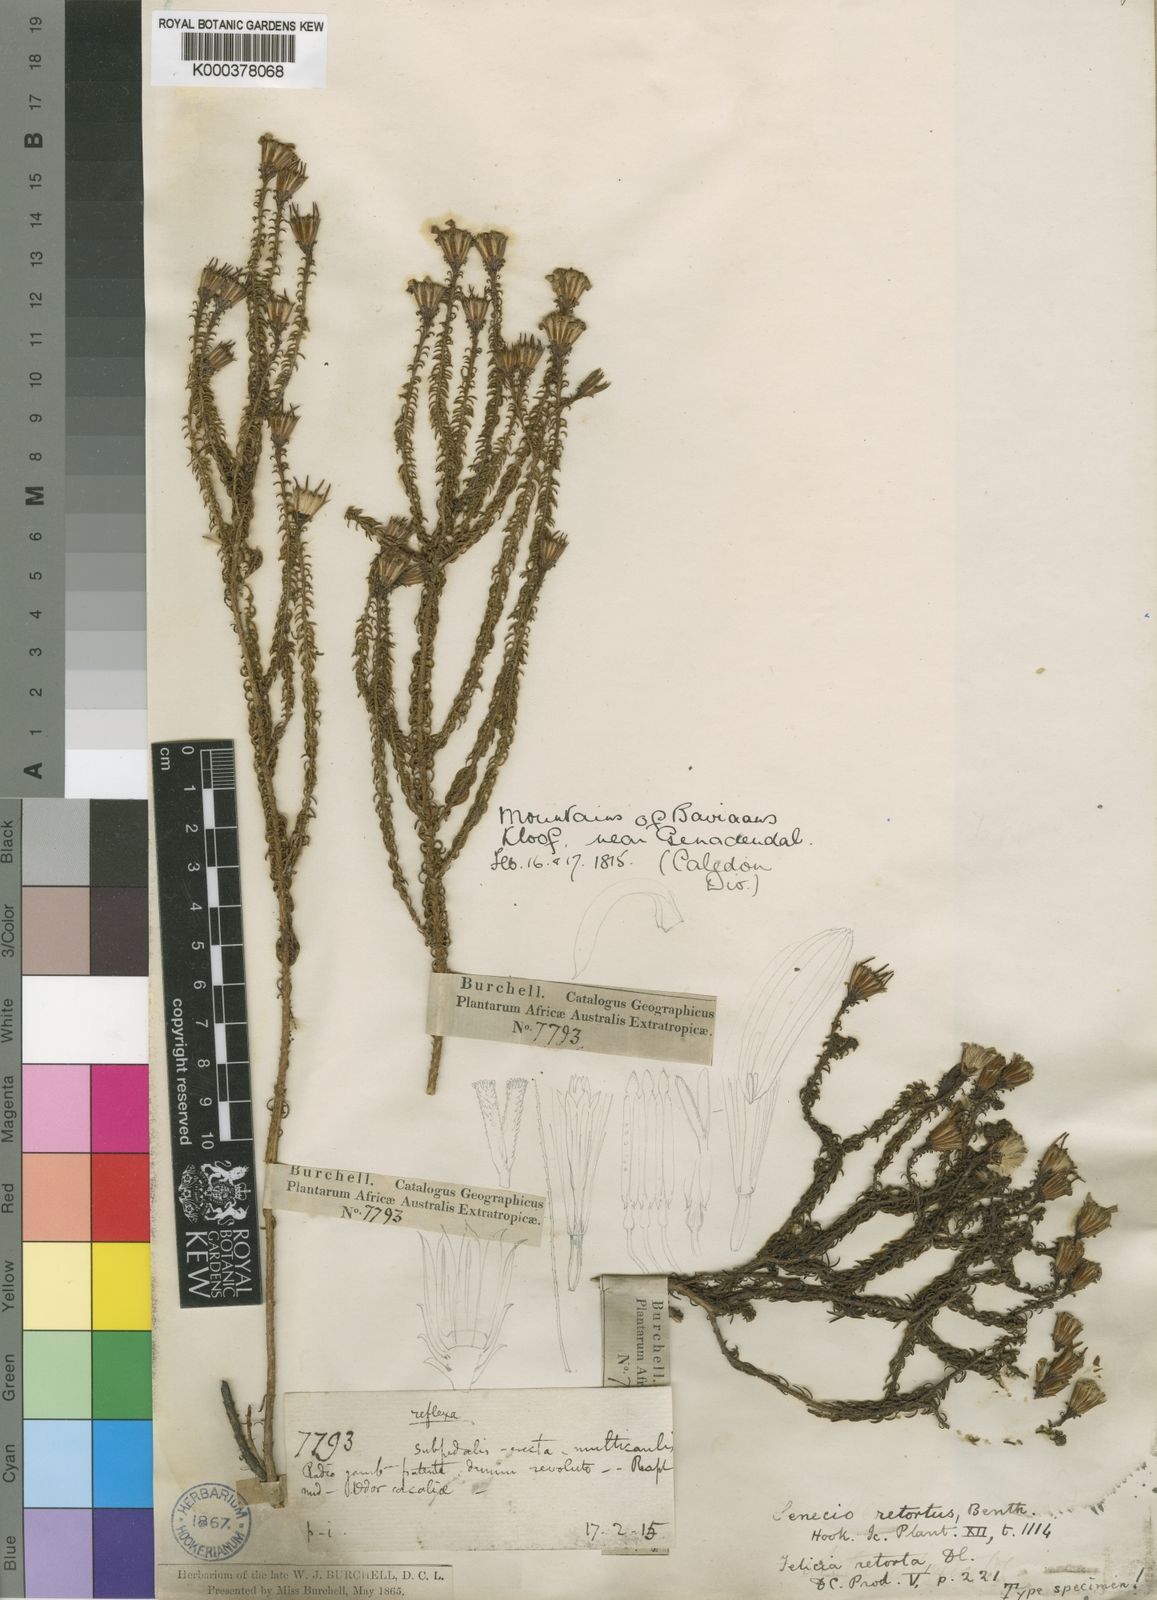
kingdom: Plantae
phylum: Tracheophyta
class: Magnoliopsida
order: Asterales
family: Asteraceae
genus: Senecio
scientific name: Senecio retortus
